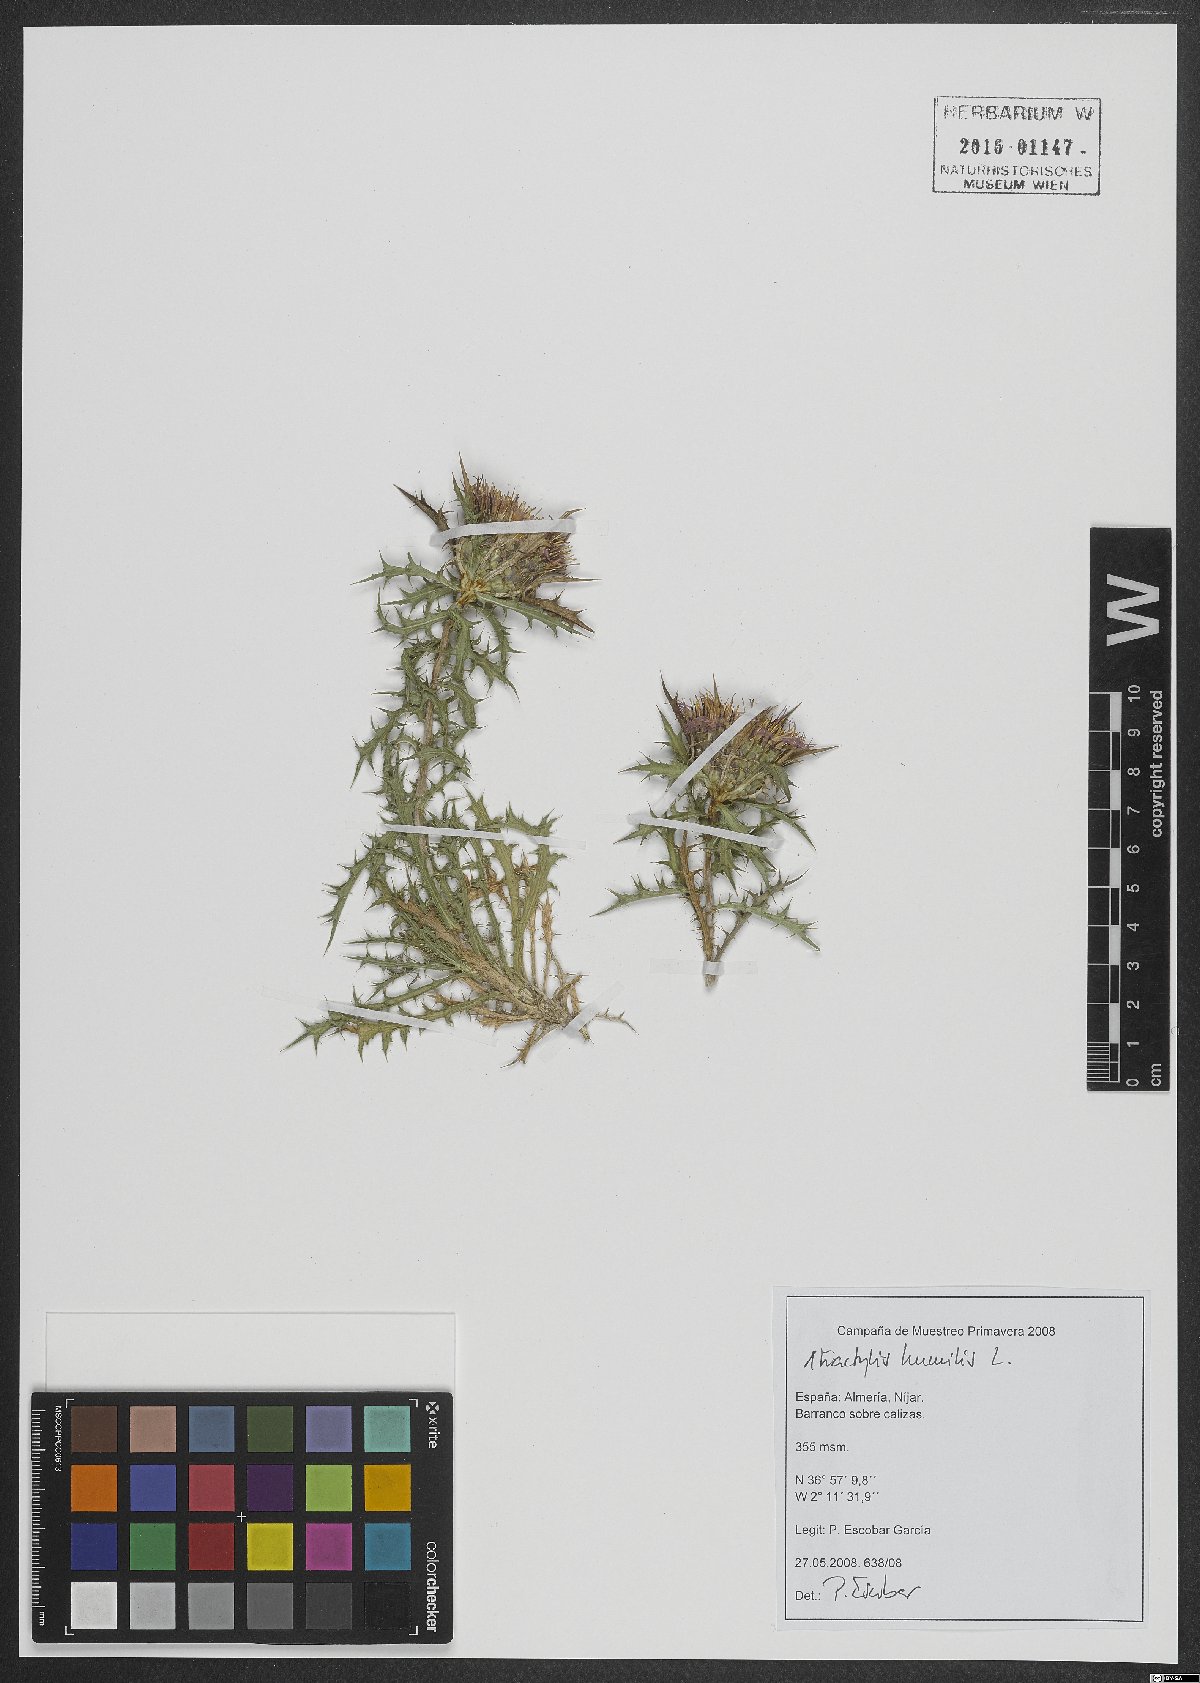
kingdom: Plantae
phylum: Tracheophyta
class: Magnoliopsida
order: Asterales
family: Asteraceae
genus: Atractylis
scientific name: Atractylis humilis
